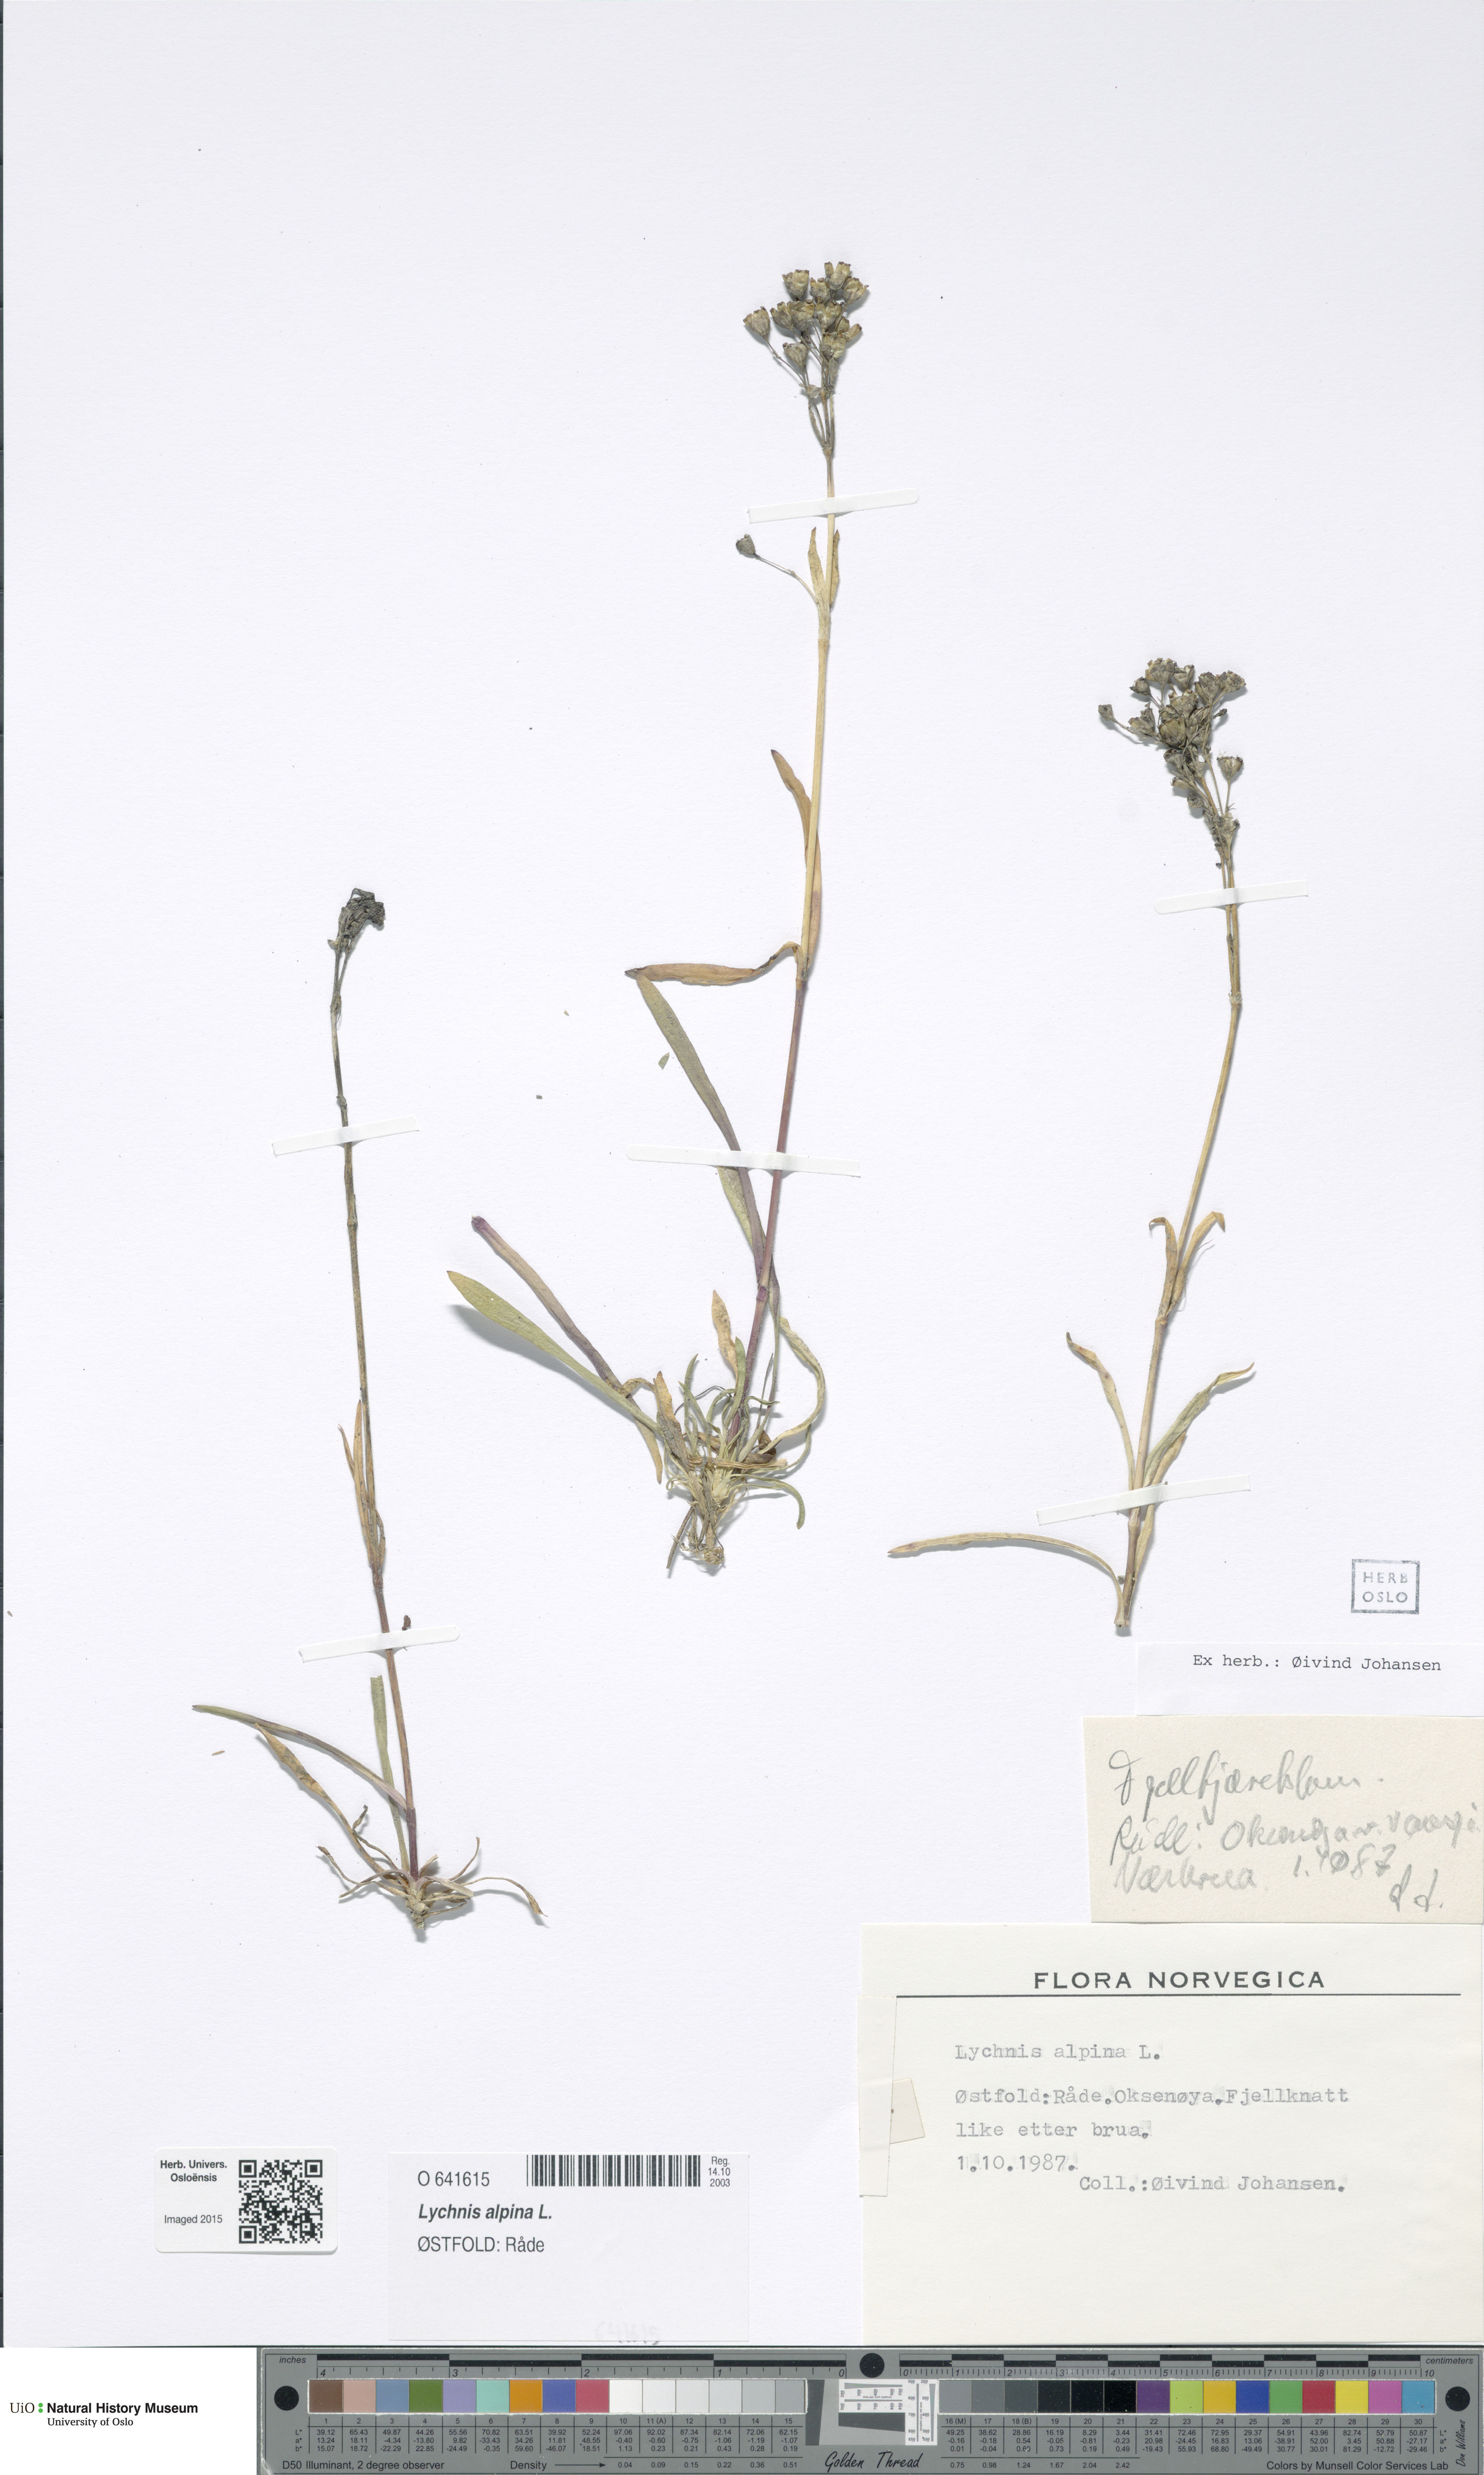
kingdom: Plantae
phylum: Tracheophyta
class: Magnoliopsida
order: Caryophyllales
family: Caryophyllaceae
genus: Viscaria
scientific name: Viscaria alpina
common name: Alpine campion
